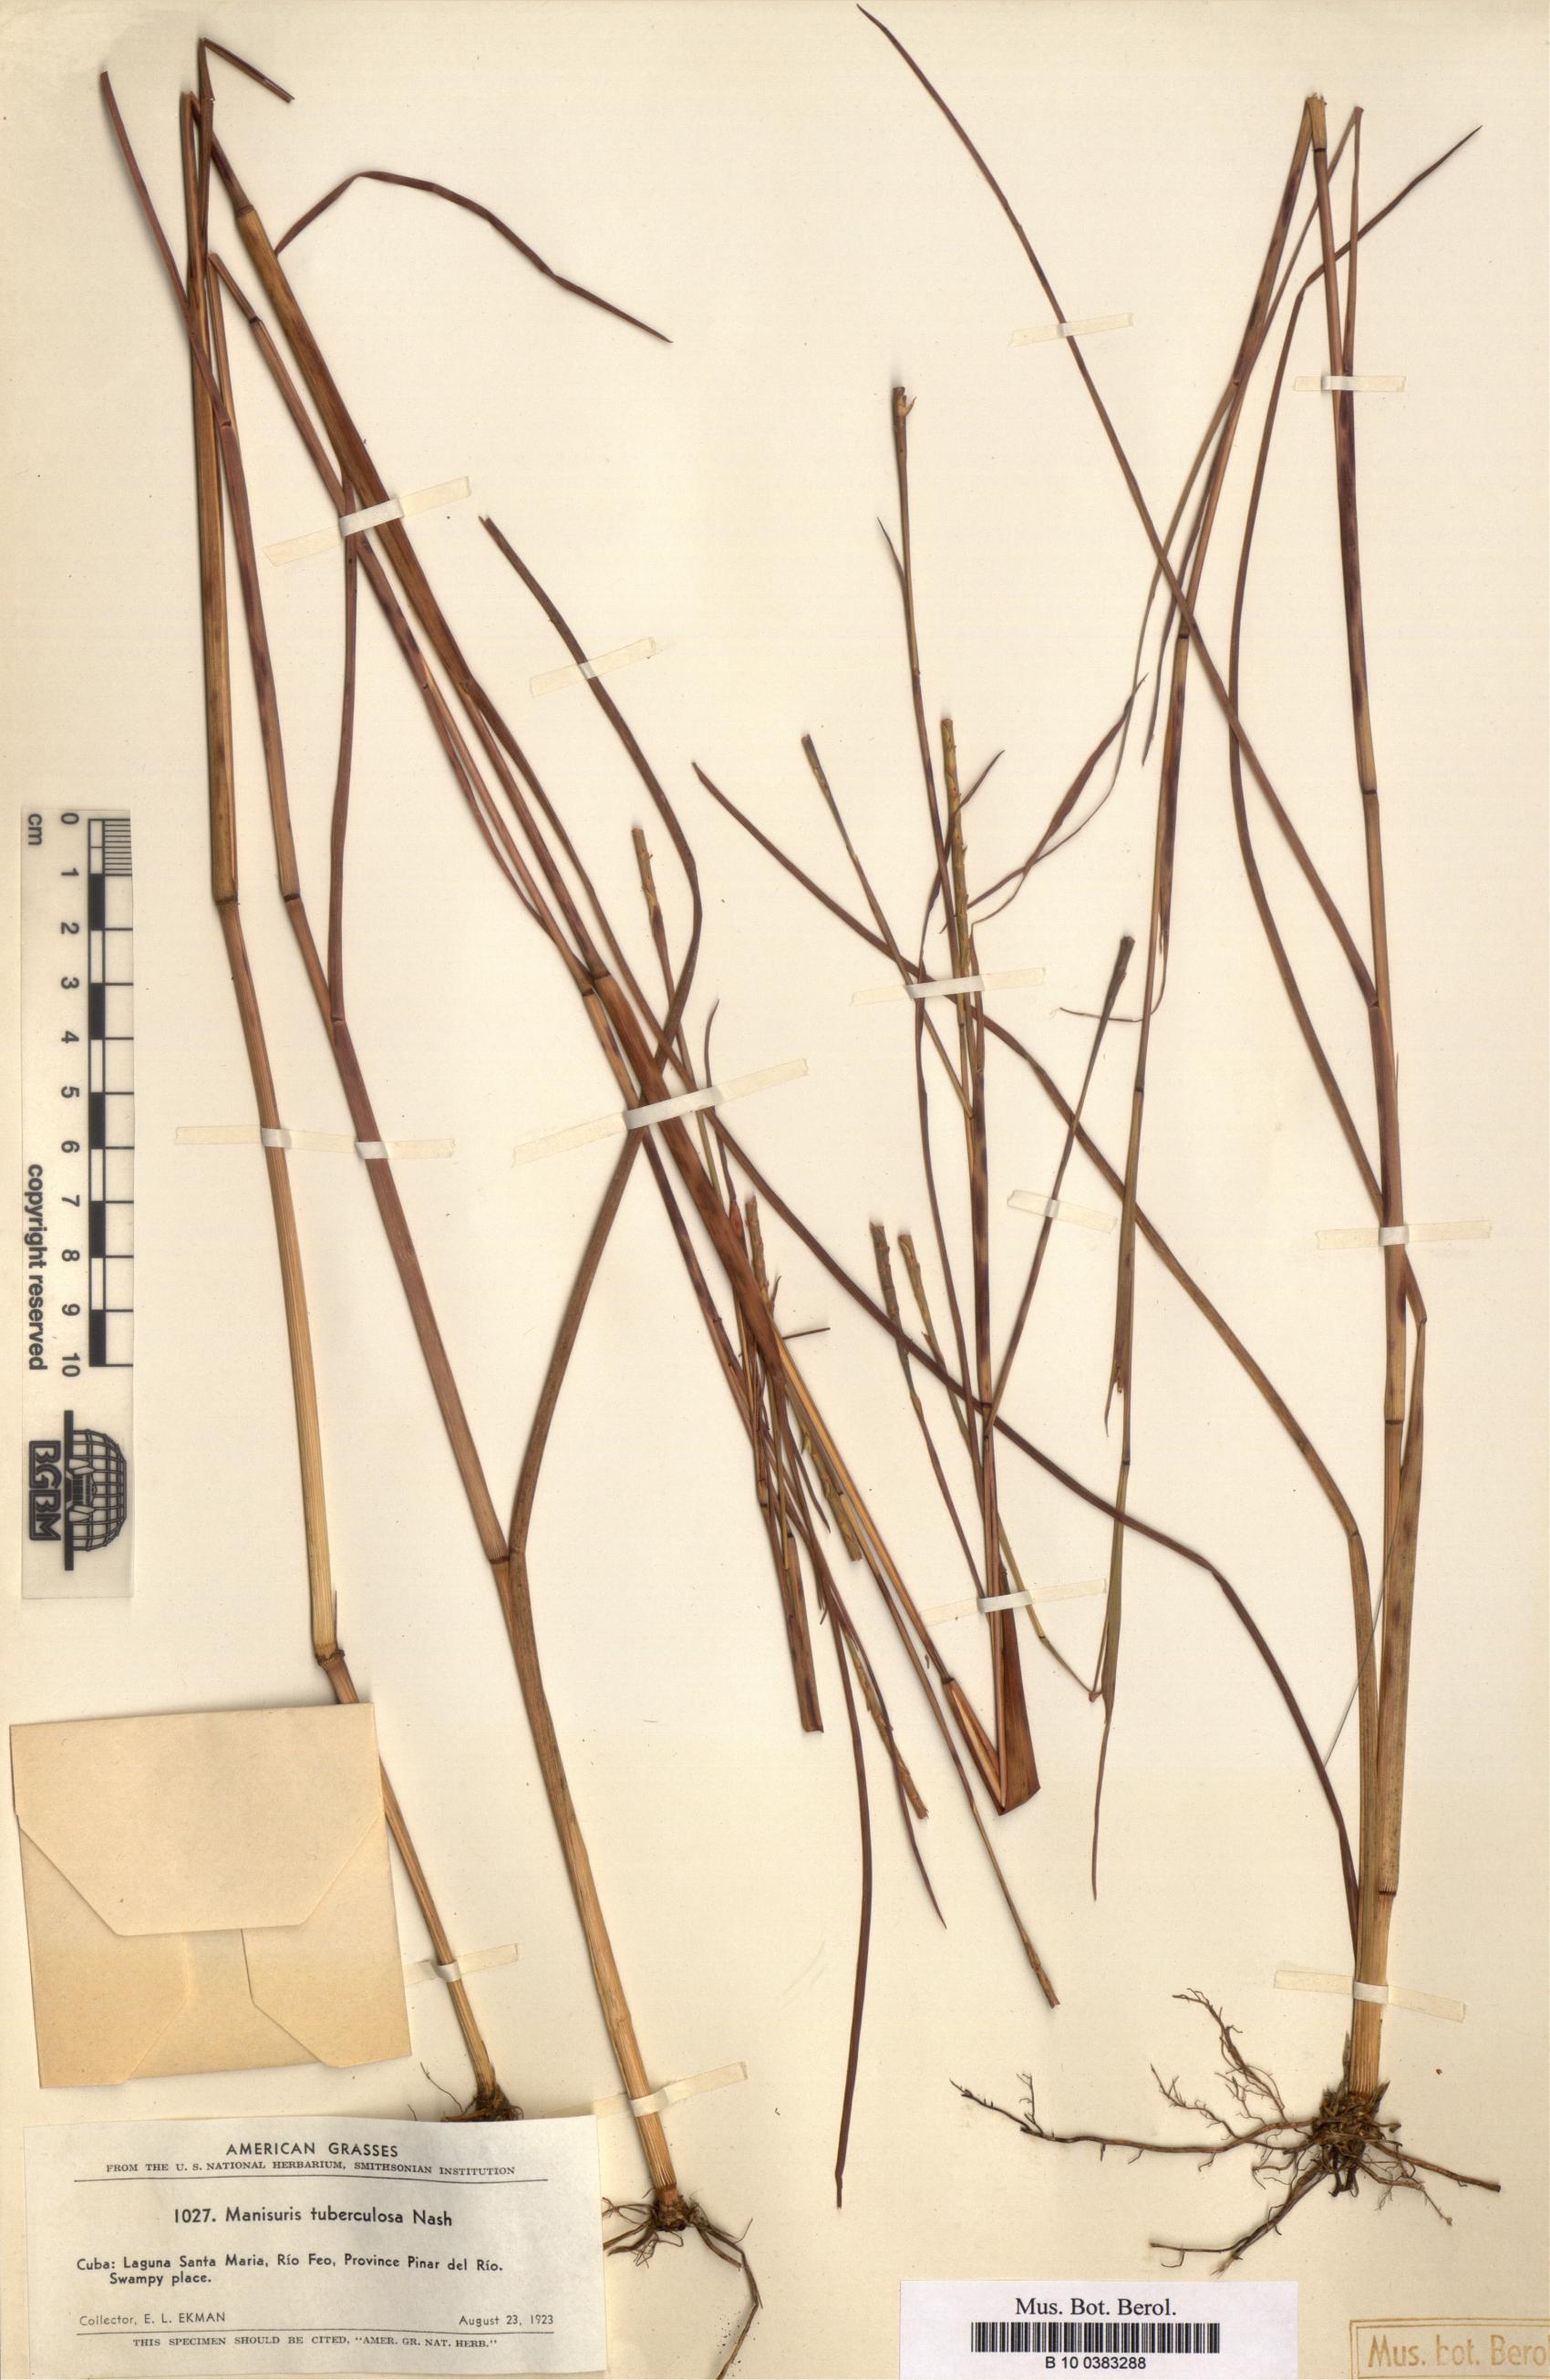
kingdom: Plantae
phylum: Tracheophyta
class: Liliopsida
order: Poales
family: Poaceae
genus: Rottboellia
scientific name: Rottboellia tuberculosa
